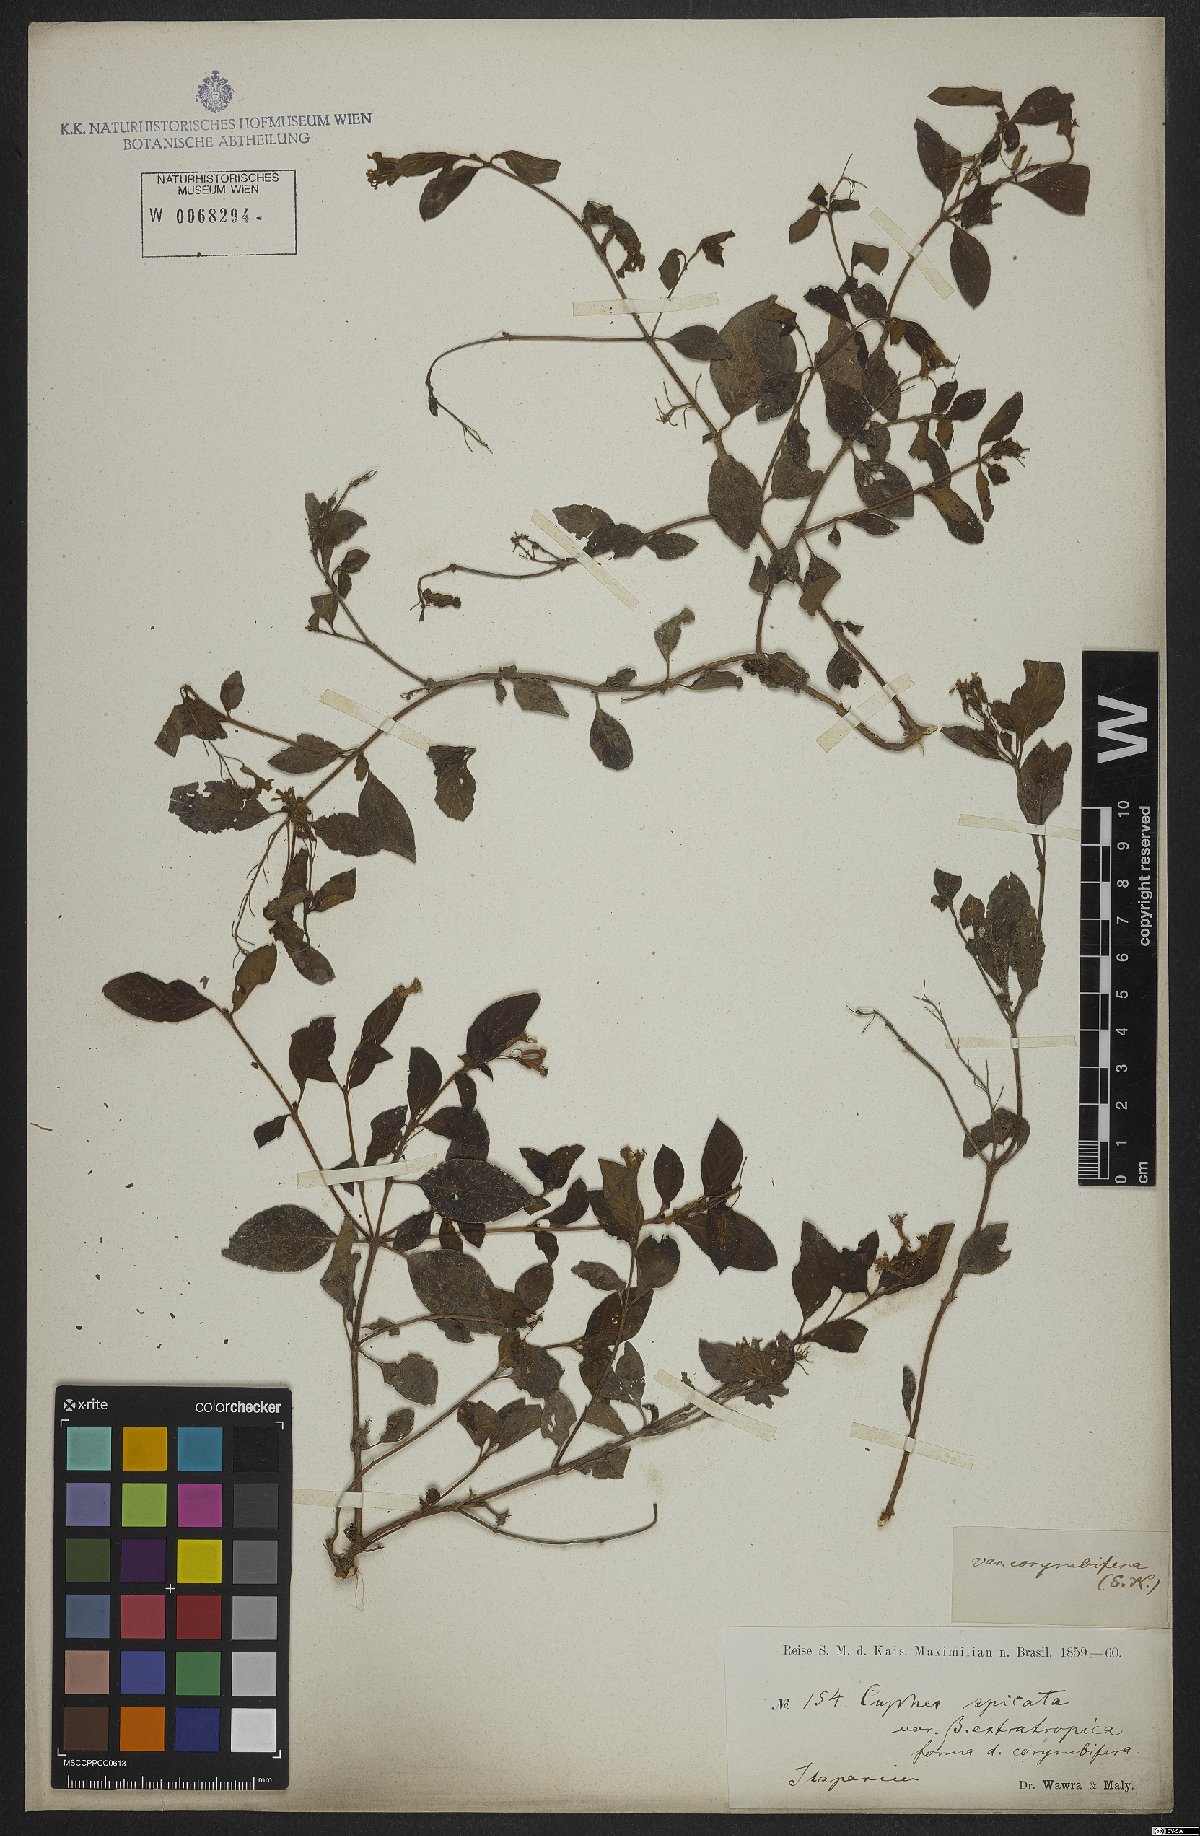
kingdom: Plantae
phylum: Tracheophyta
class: Magnoliopsida
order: Myrtales
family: Lythraceae
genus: Cuphea
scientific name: Cuphea racemosa
